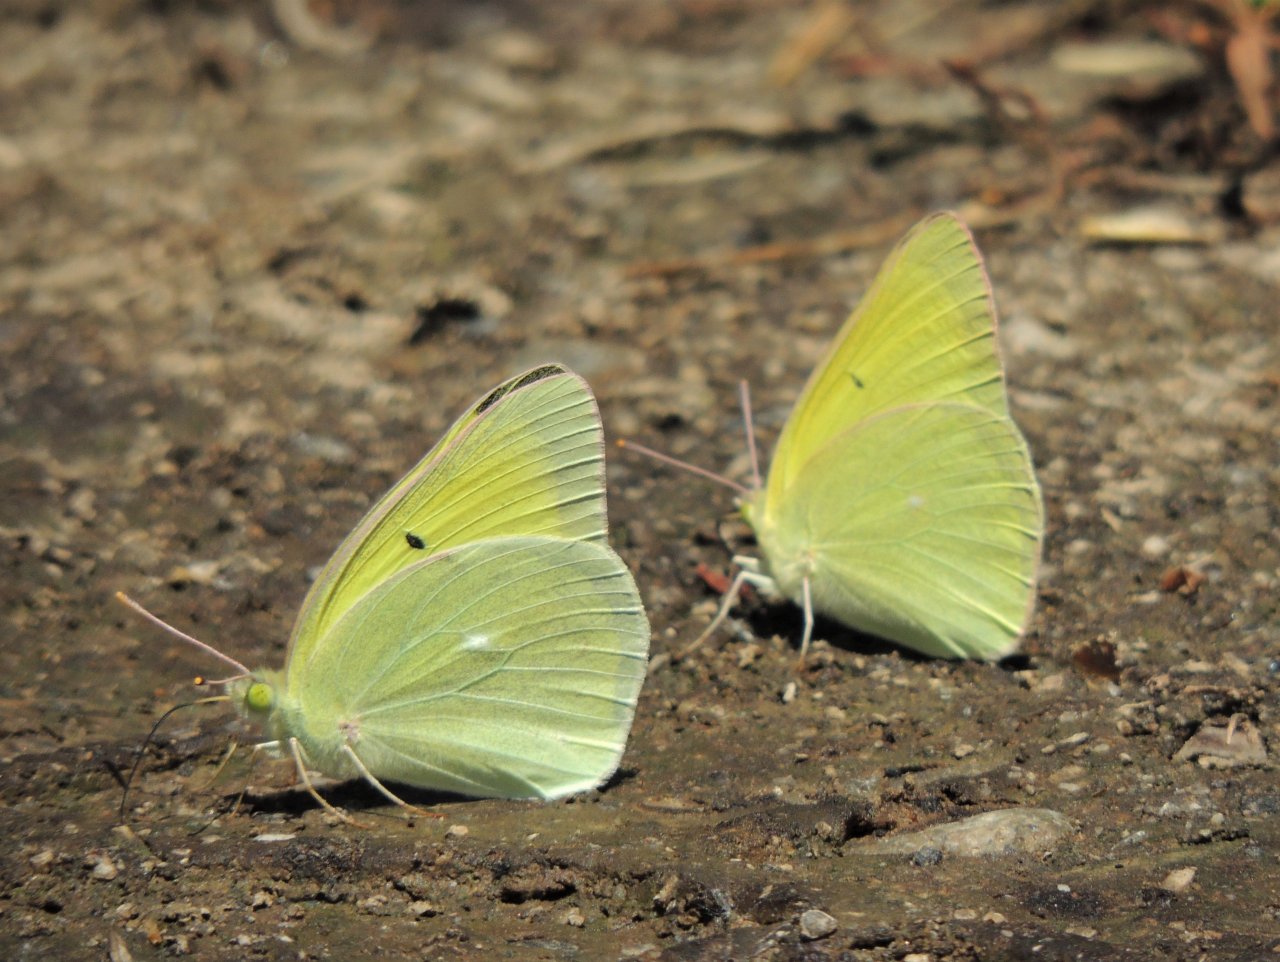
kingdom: Animalia
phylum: Arthropoda
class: Insecta
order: Lepidoptera
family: Pieridae
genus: Colias
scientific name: Colias alexandra
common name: Queen Alexandra's Sulphur
